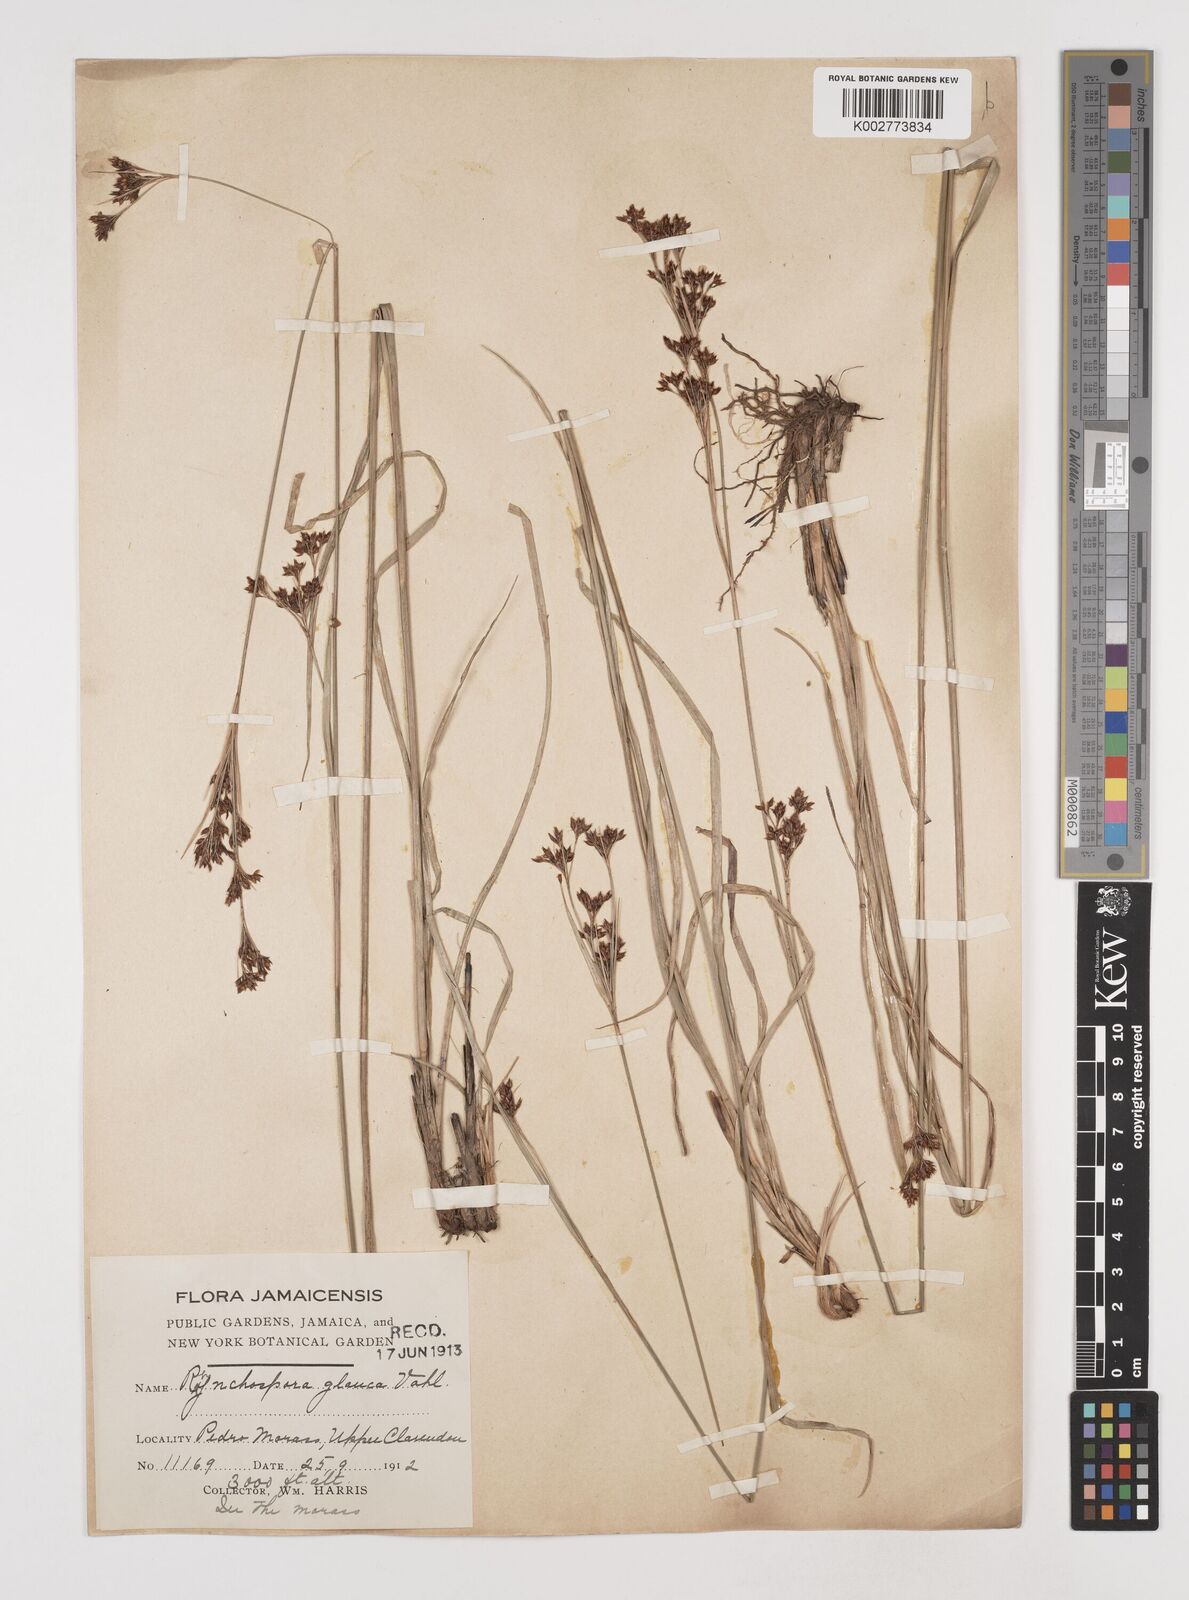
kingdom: Plantae
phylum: Tracheophyta
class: Liliopsida
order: Poales
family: Cyperaceae
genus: Rhynchospora
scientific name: Rhynchospora rugosa
